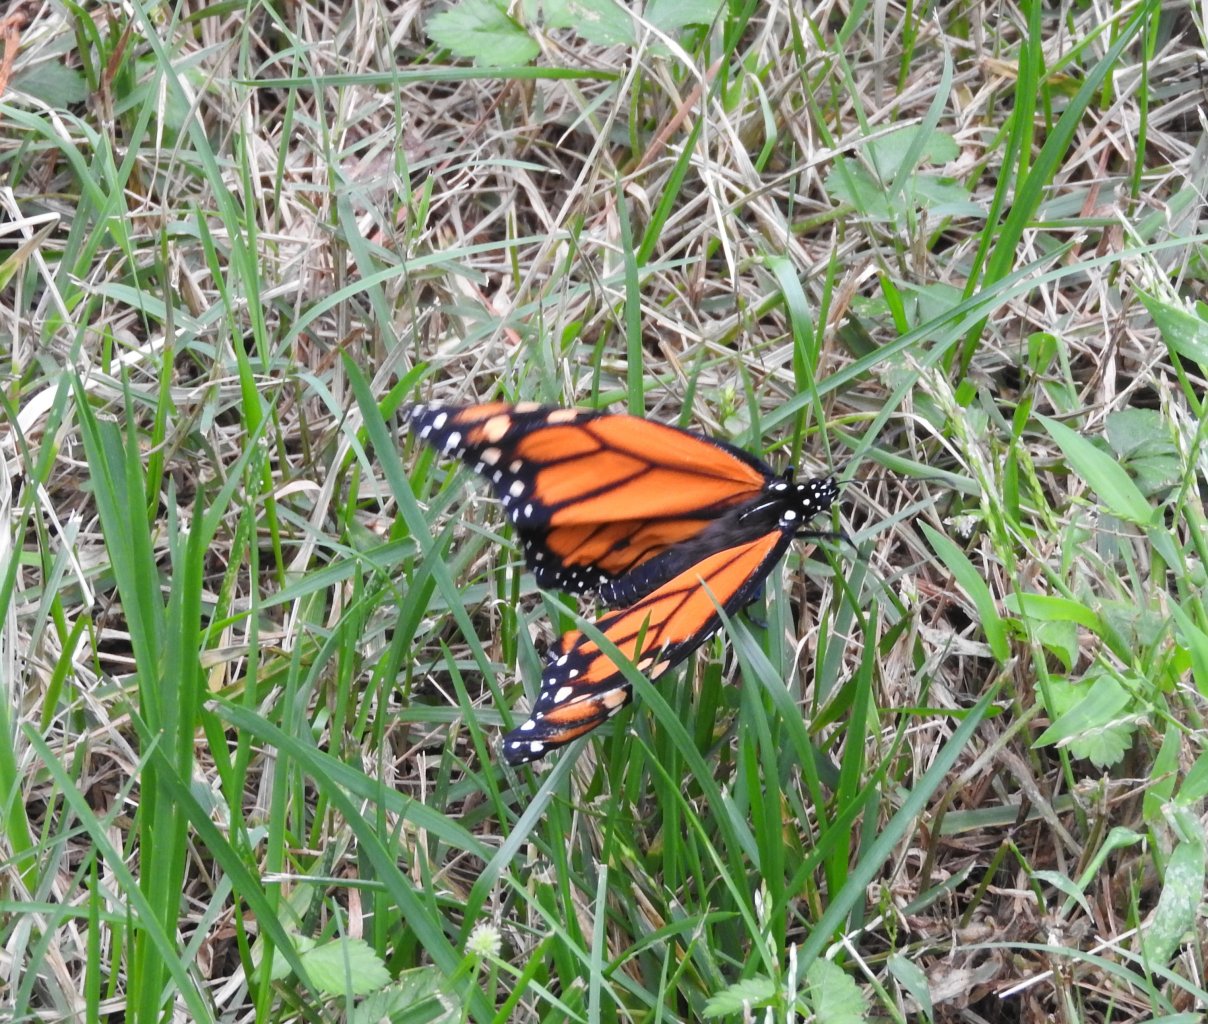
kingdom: Animalia
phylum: Arthropoda
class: Insecta
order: Lepidoptera
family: Nymphalidae
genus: Danaus
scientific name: Danaus plexippus
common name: Monarch
